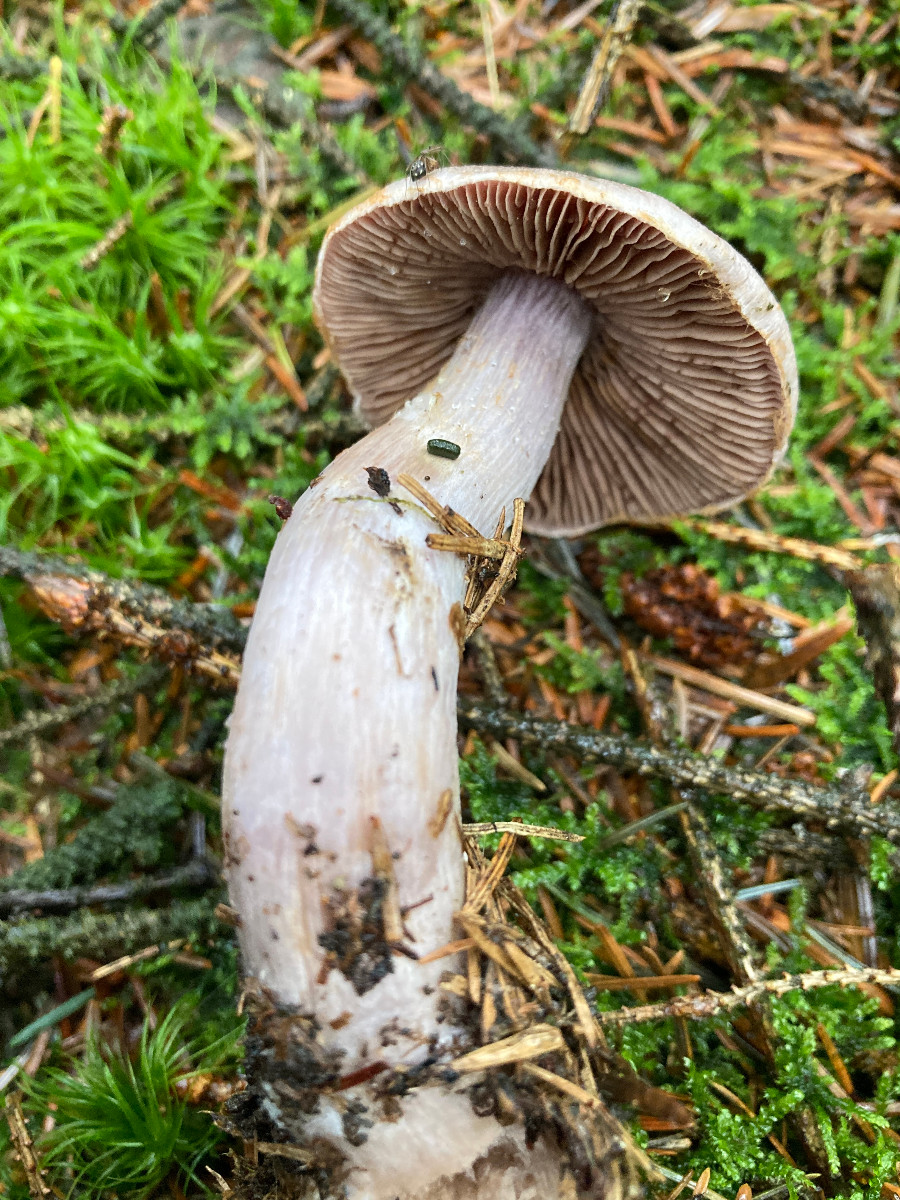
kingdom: Fungi
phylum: Basidiomycota
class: Agaricomycetes
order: Agaricales
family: Cortinariaceae
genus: Cortinarius
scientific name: Cortinarius malachius
